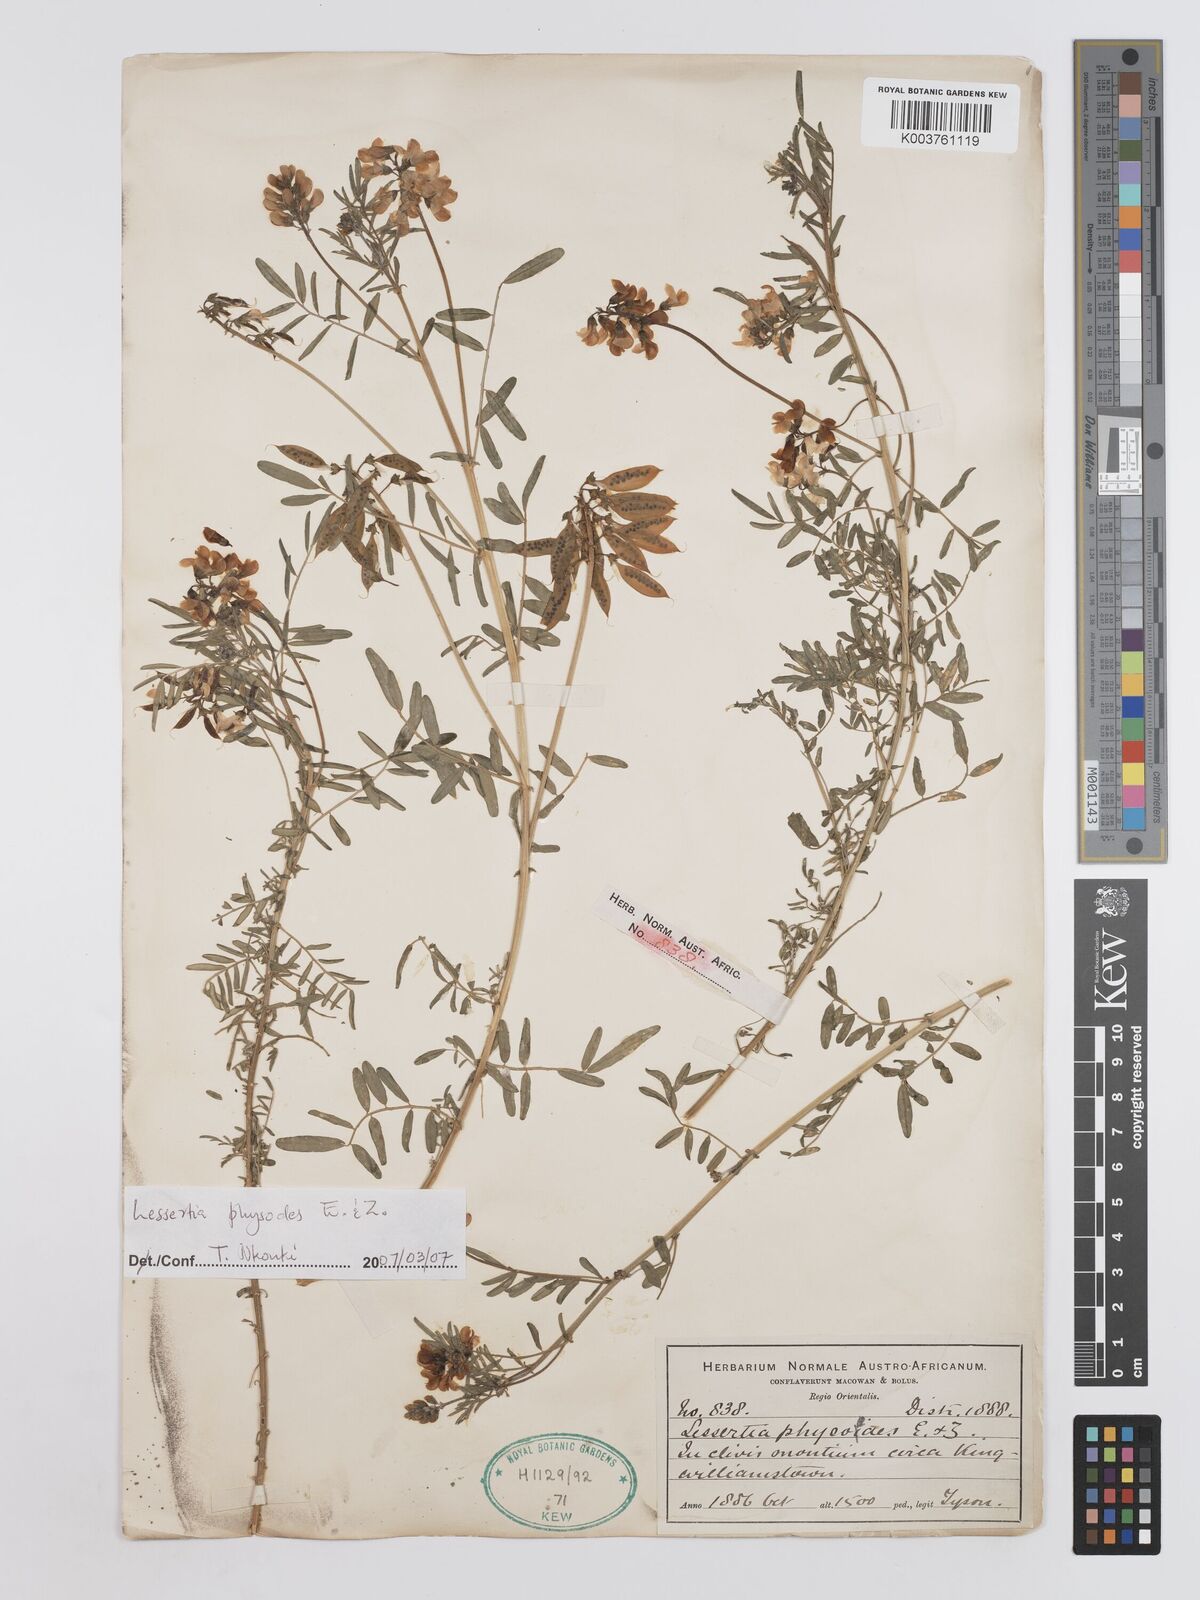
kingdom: Plantae
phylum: Tracheophyta
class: Magnoliopsida
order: Fabales
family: Fabaceae
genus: Lessertia
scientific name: Lessertia physodes
